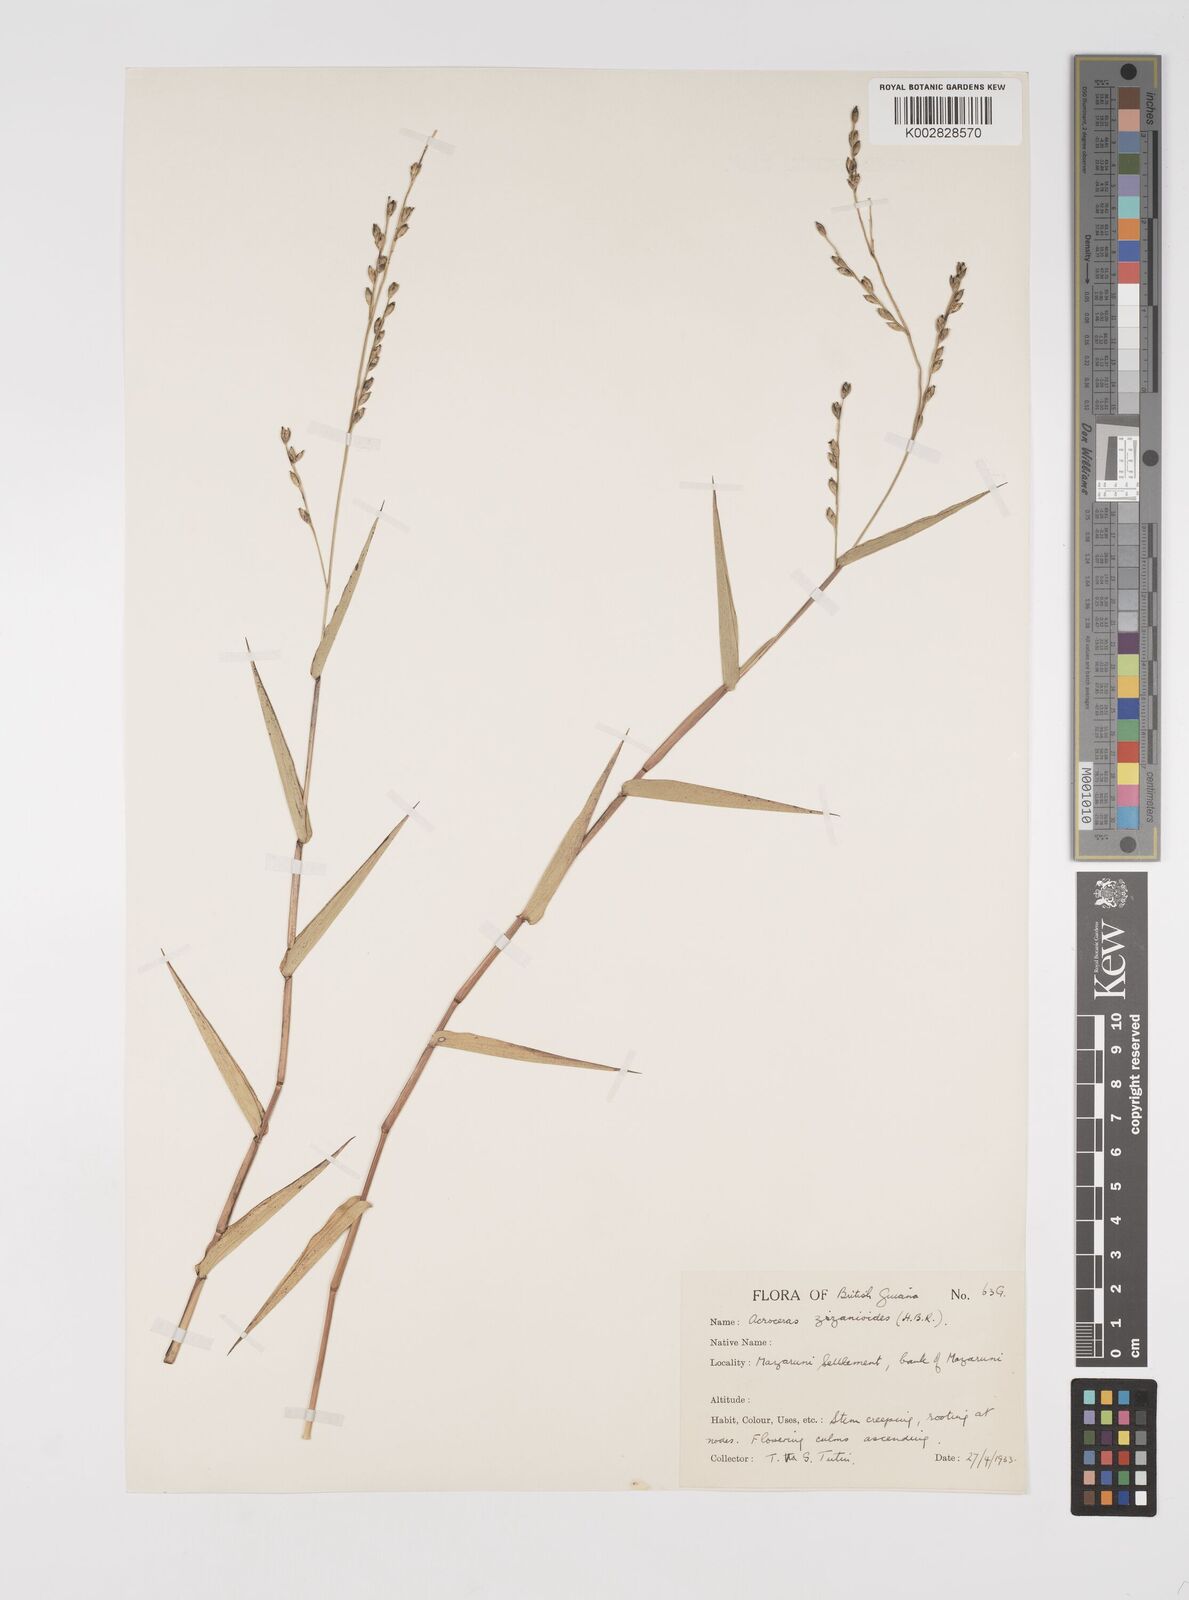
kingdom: Plantae
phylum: Tracheophyta
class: Liliopsida
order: Poales
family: Poaceae
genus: Acroceras
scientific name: Acroceras zizanioides
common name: Oat grass
